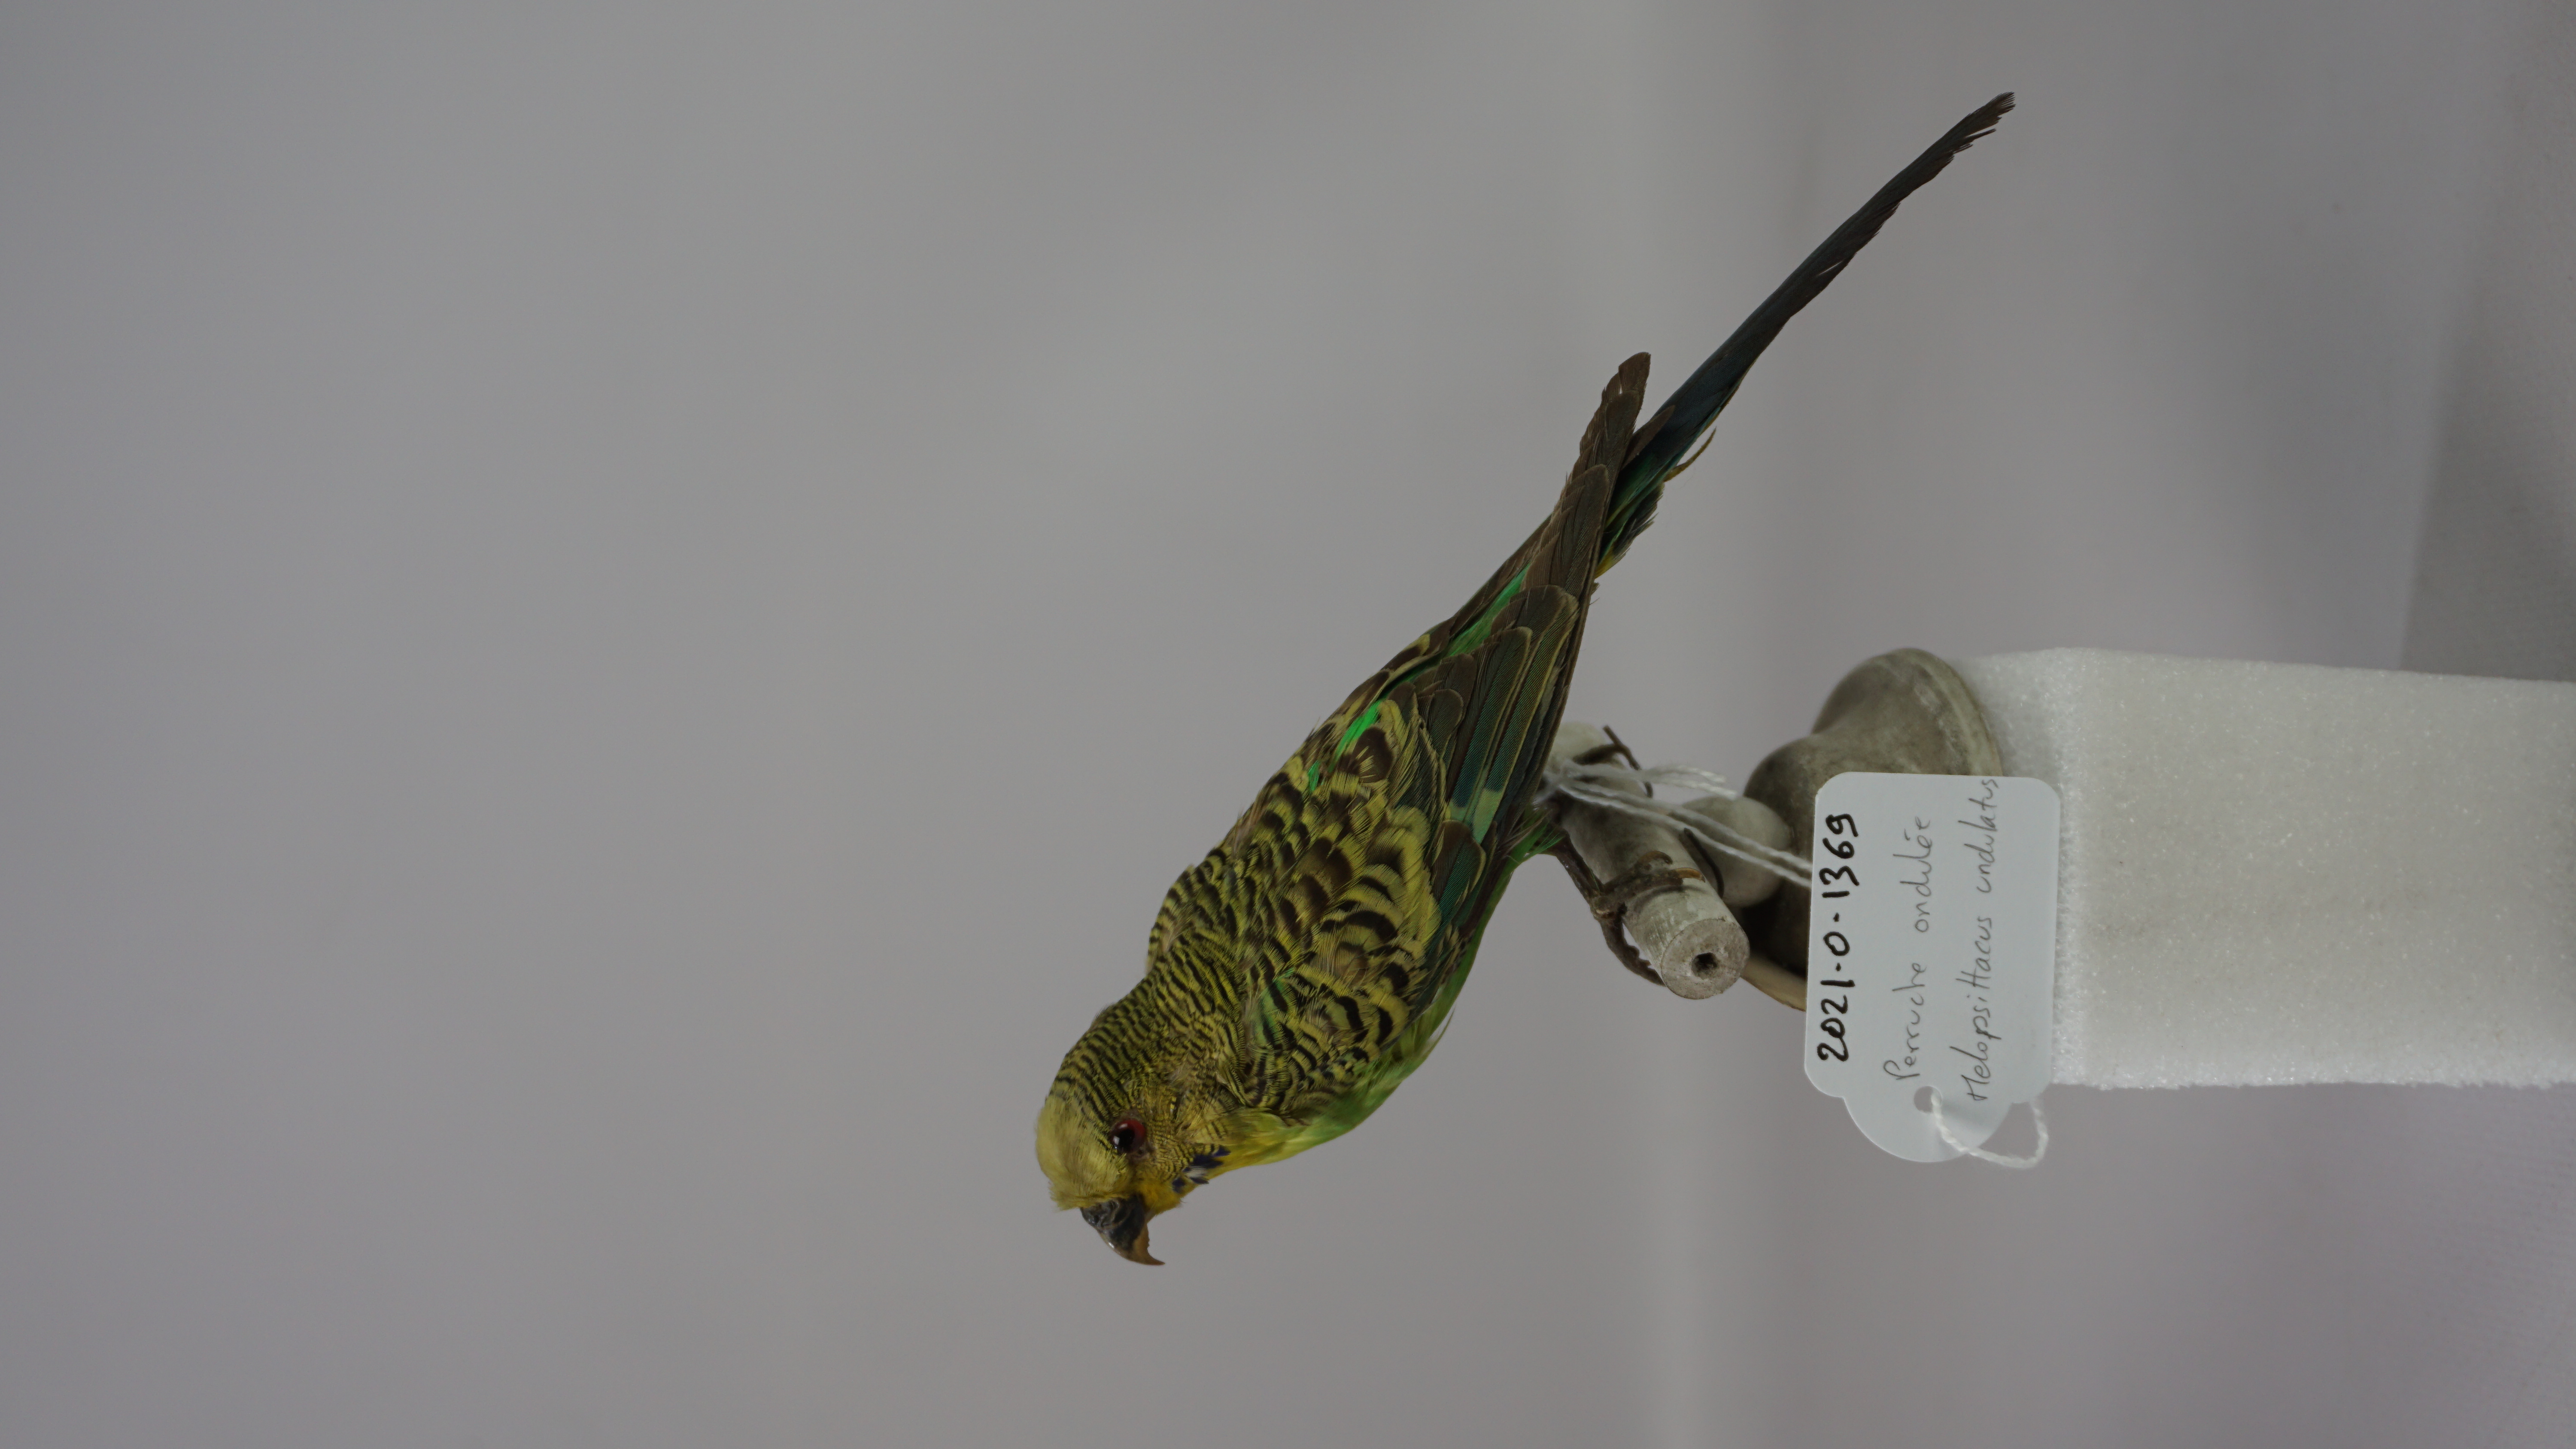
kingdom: Animalia
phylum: Chordata
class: Aves
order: Psittaciformes
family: Psittacidae
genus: Melopsittacus
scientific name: Melopsittacus undulatus
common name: Budgerigar
